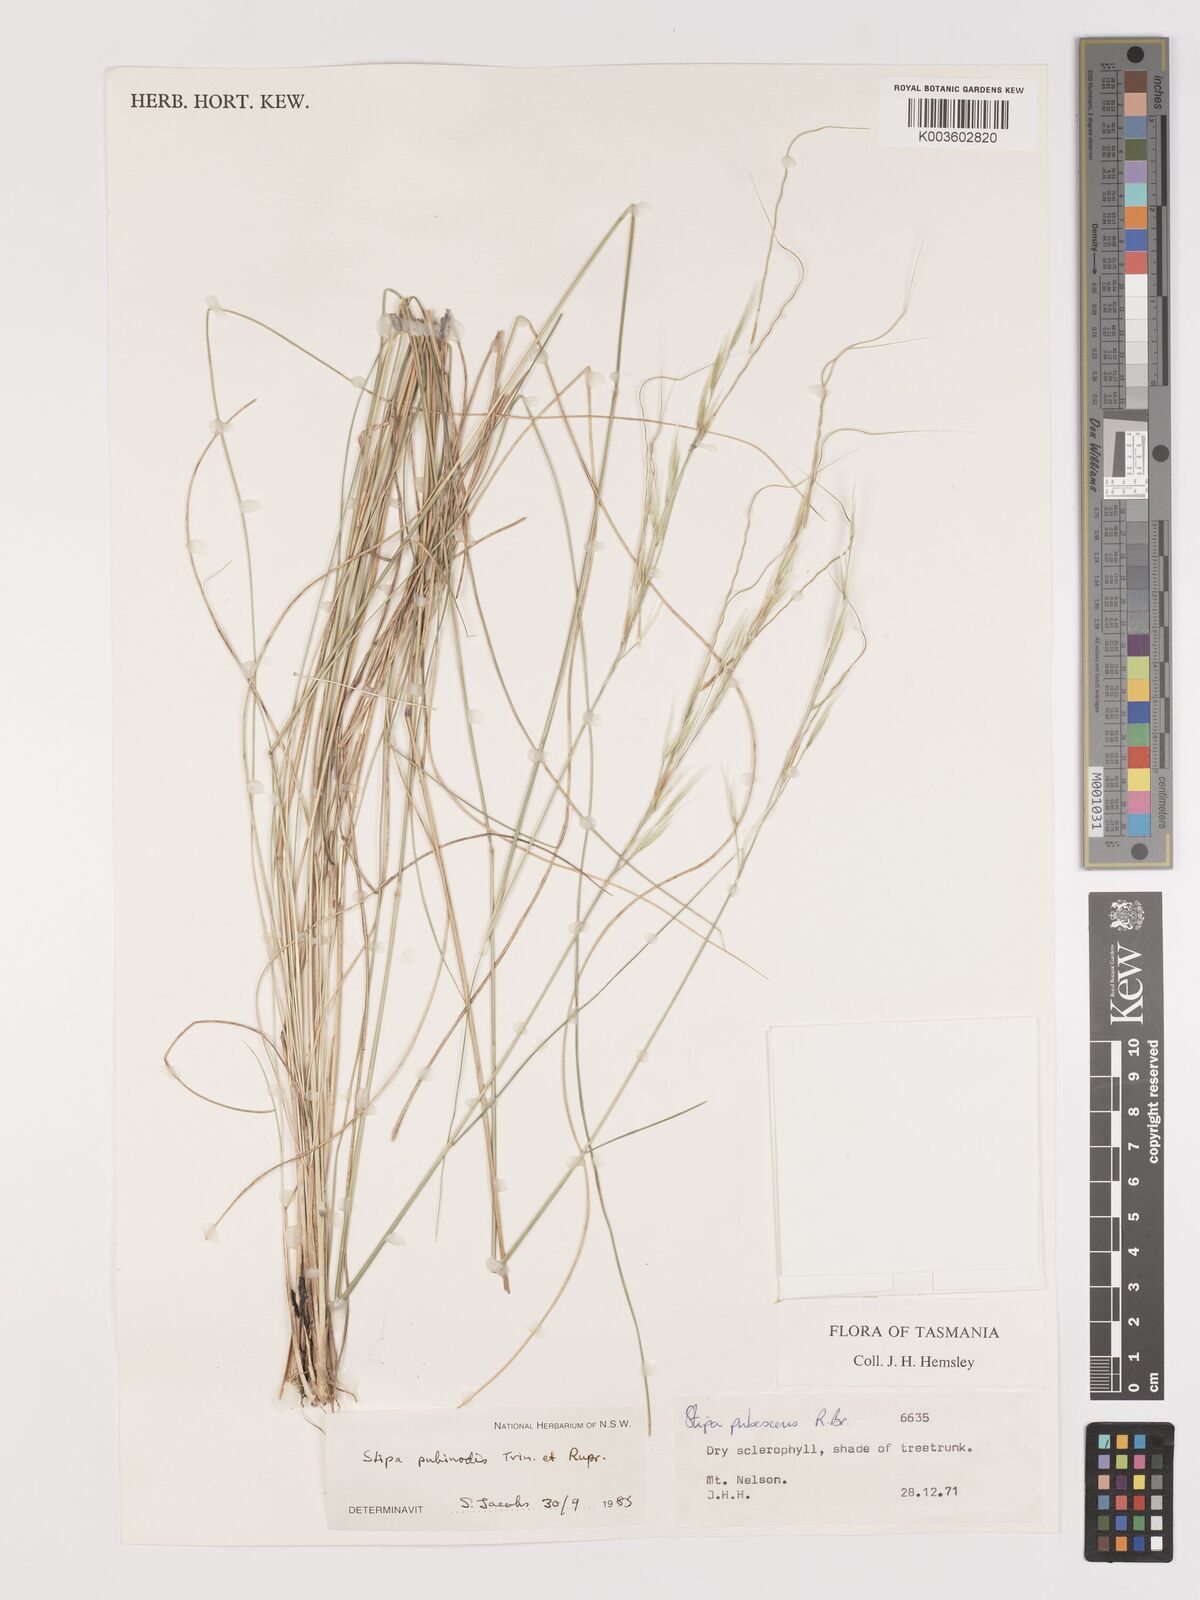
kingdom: Plantae
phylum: Tracheophyta
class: Liliopsida
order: Poales
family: Poaceae
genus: Austrostipa
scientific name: Austrostipa pubinodis
